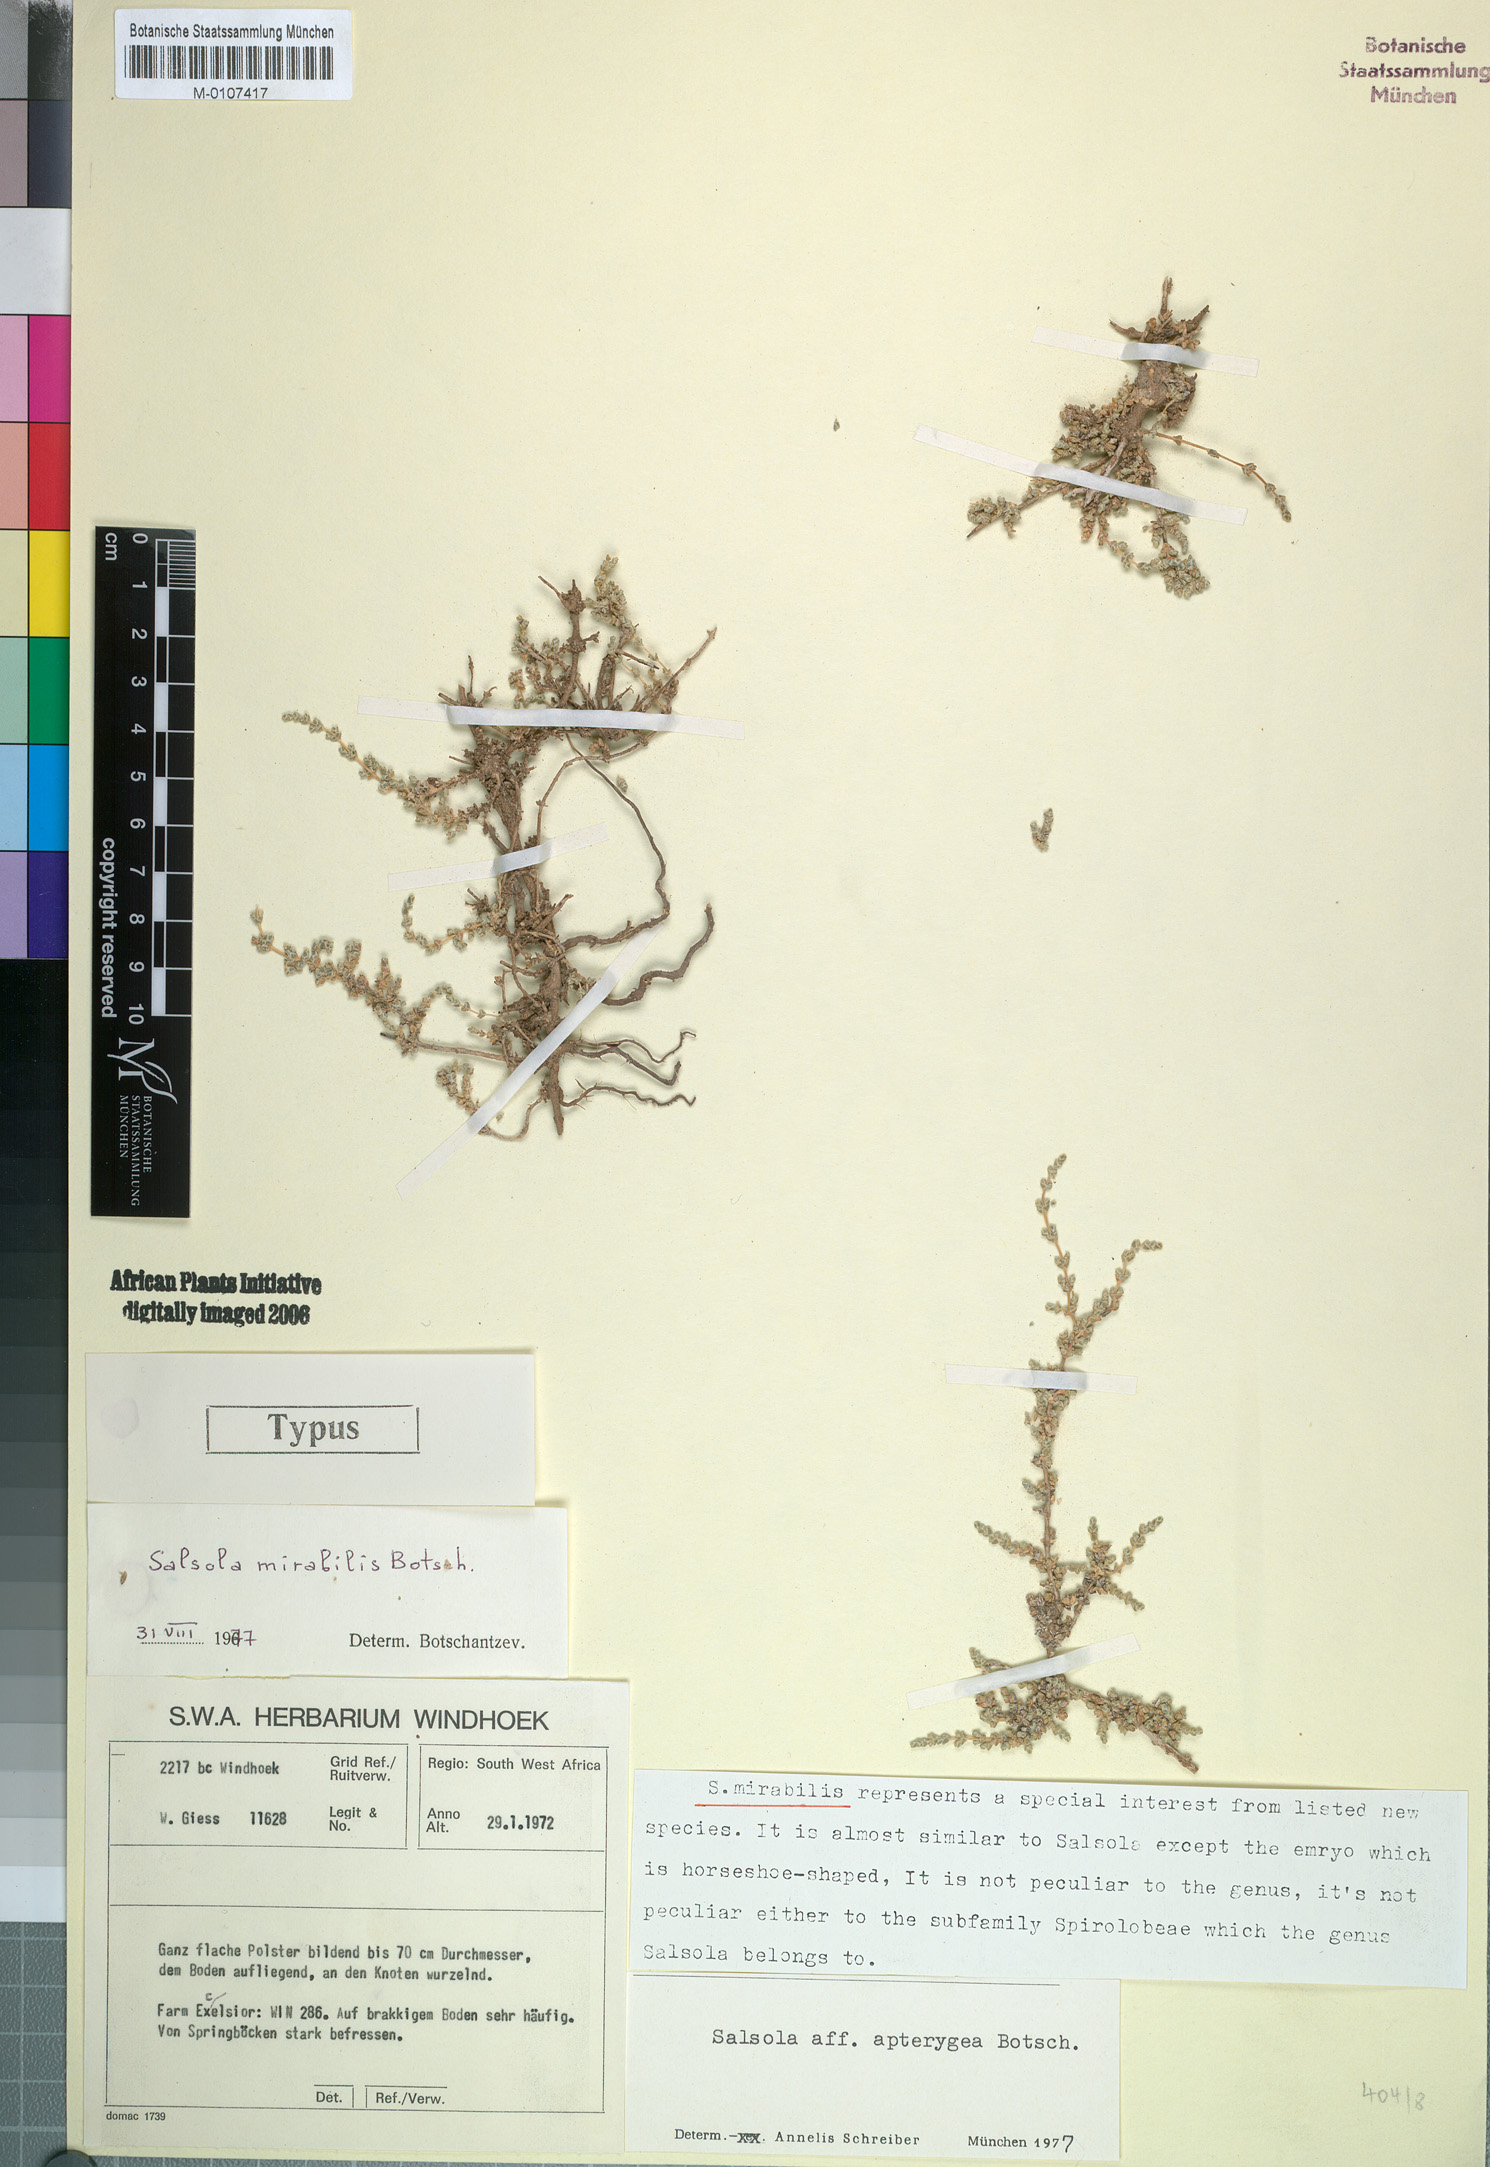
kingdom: Plantae
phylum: Tracheophyta
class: Magnoliopsida
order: Caryophyllales
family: Amaranthaceae
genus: Caroxylon
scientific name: Caroxylon mirabile
